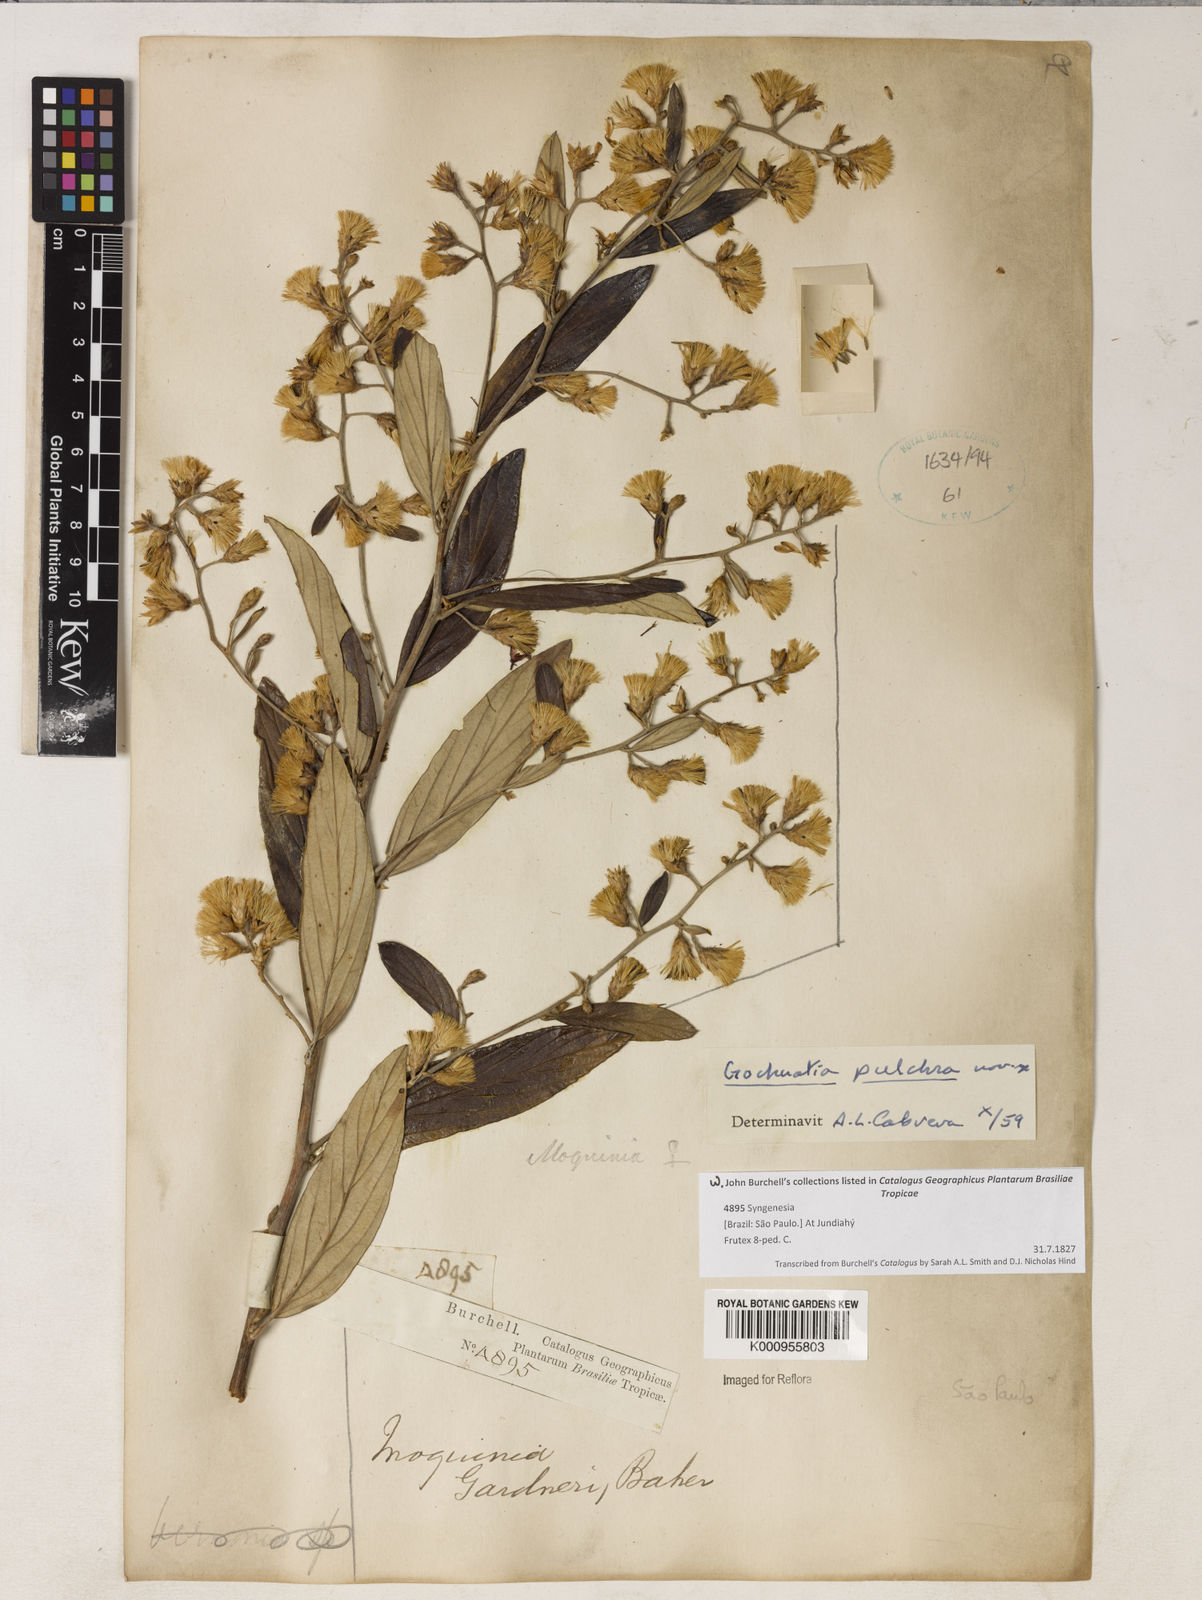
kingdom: Plantae
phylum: Tracheophyta
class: Magnoliopsida
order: Asterales
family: Asteraceae
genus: Moquiniastrum
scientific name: Moquiniastrum gardneri
